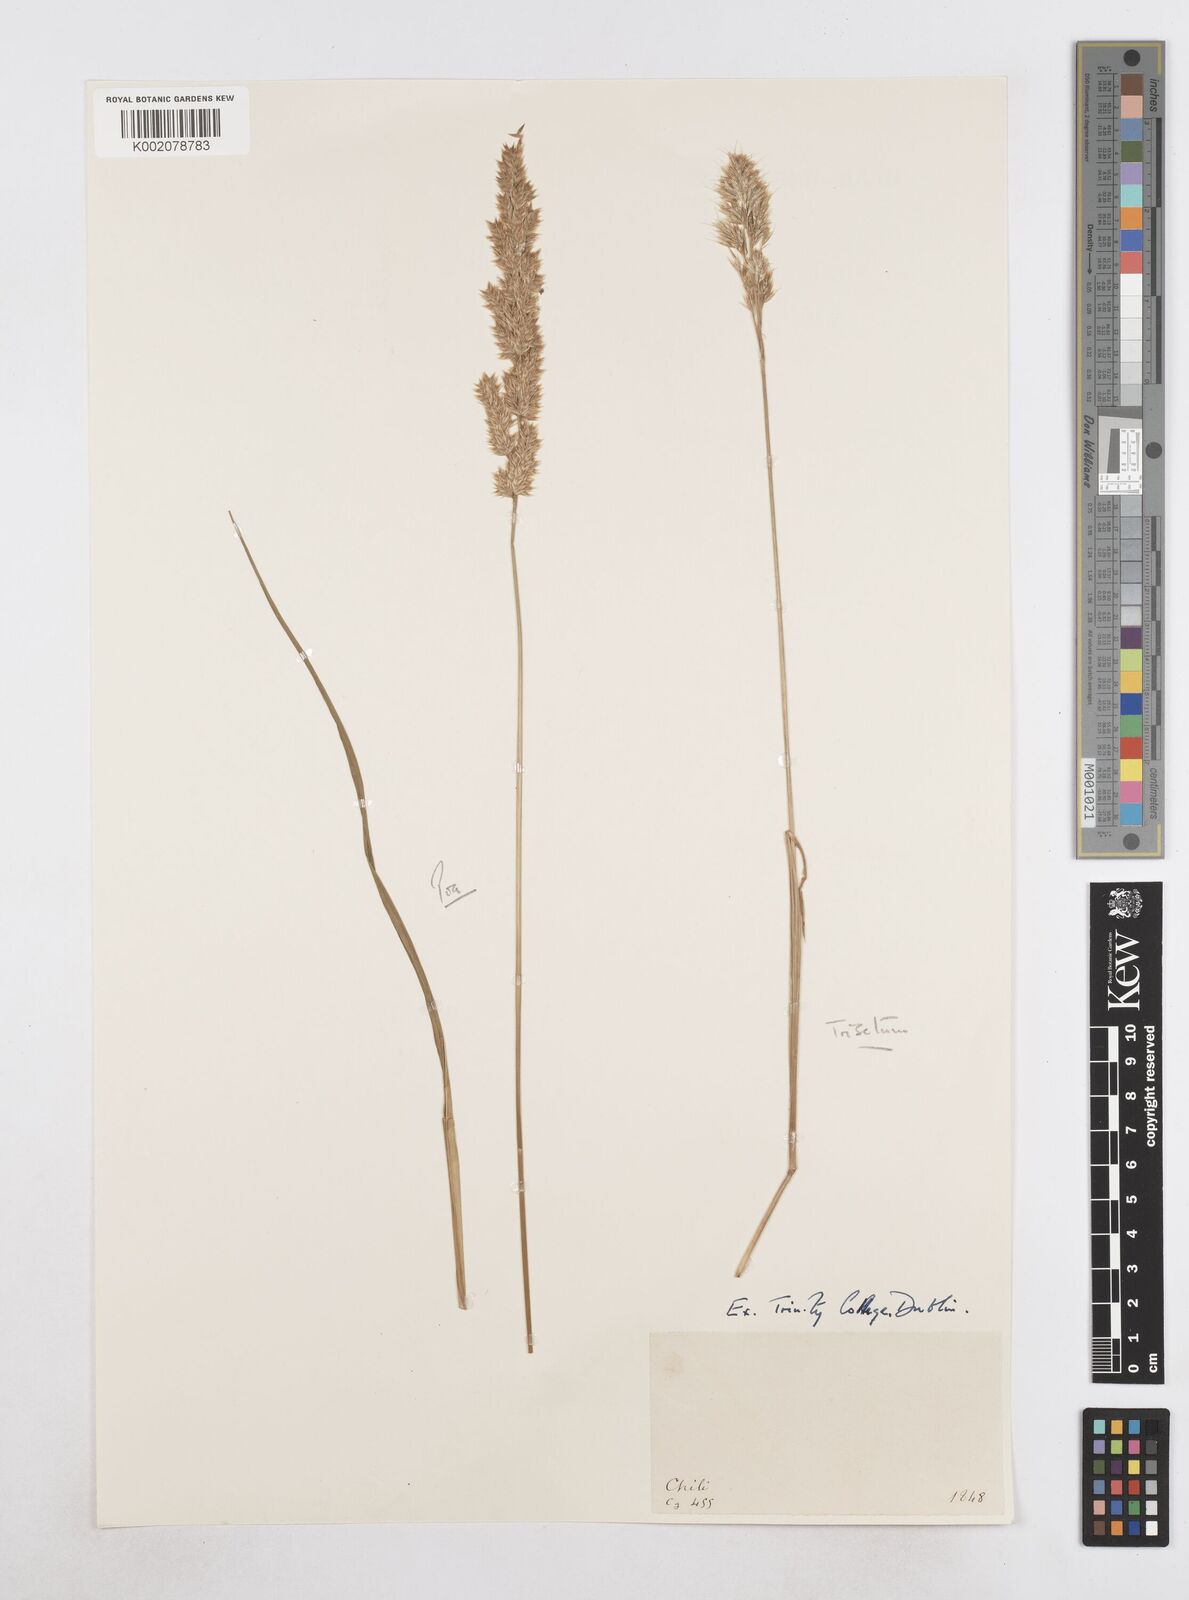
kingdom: Plantae
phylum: Tracheophyta
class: Liliopsida
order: Poales
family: Poaceae
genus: Poa
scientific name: Poa
